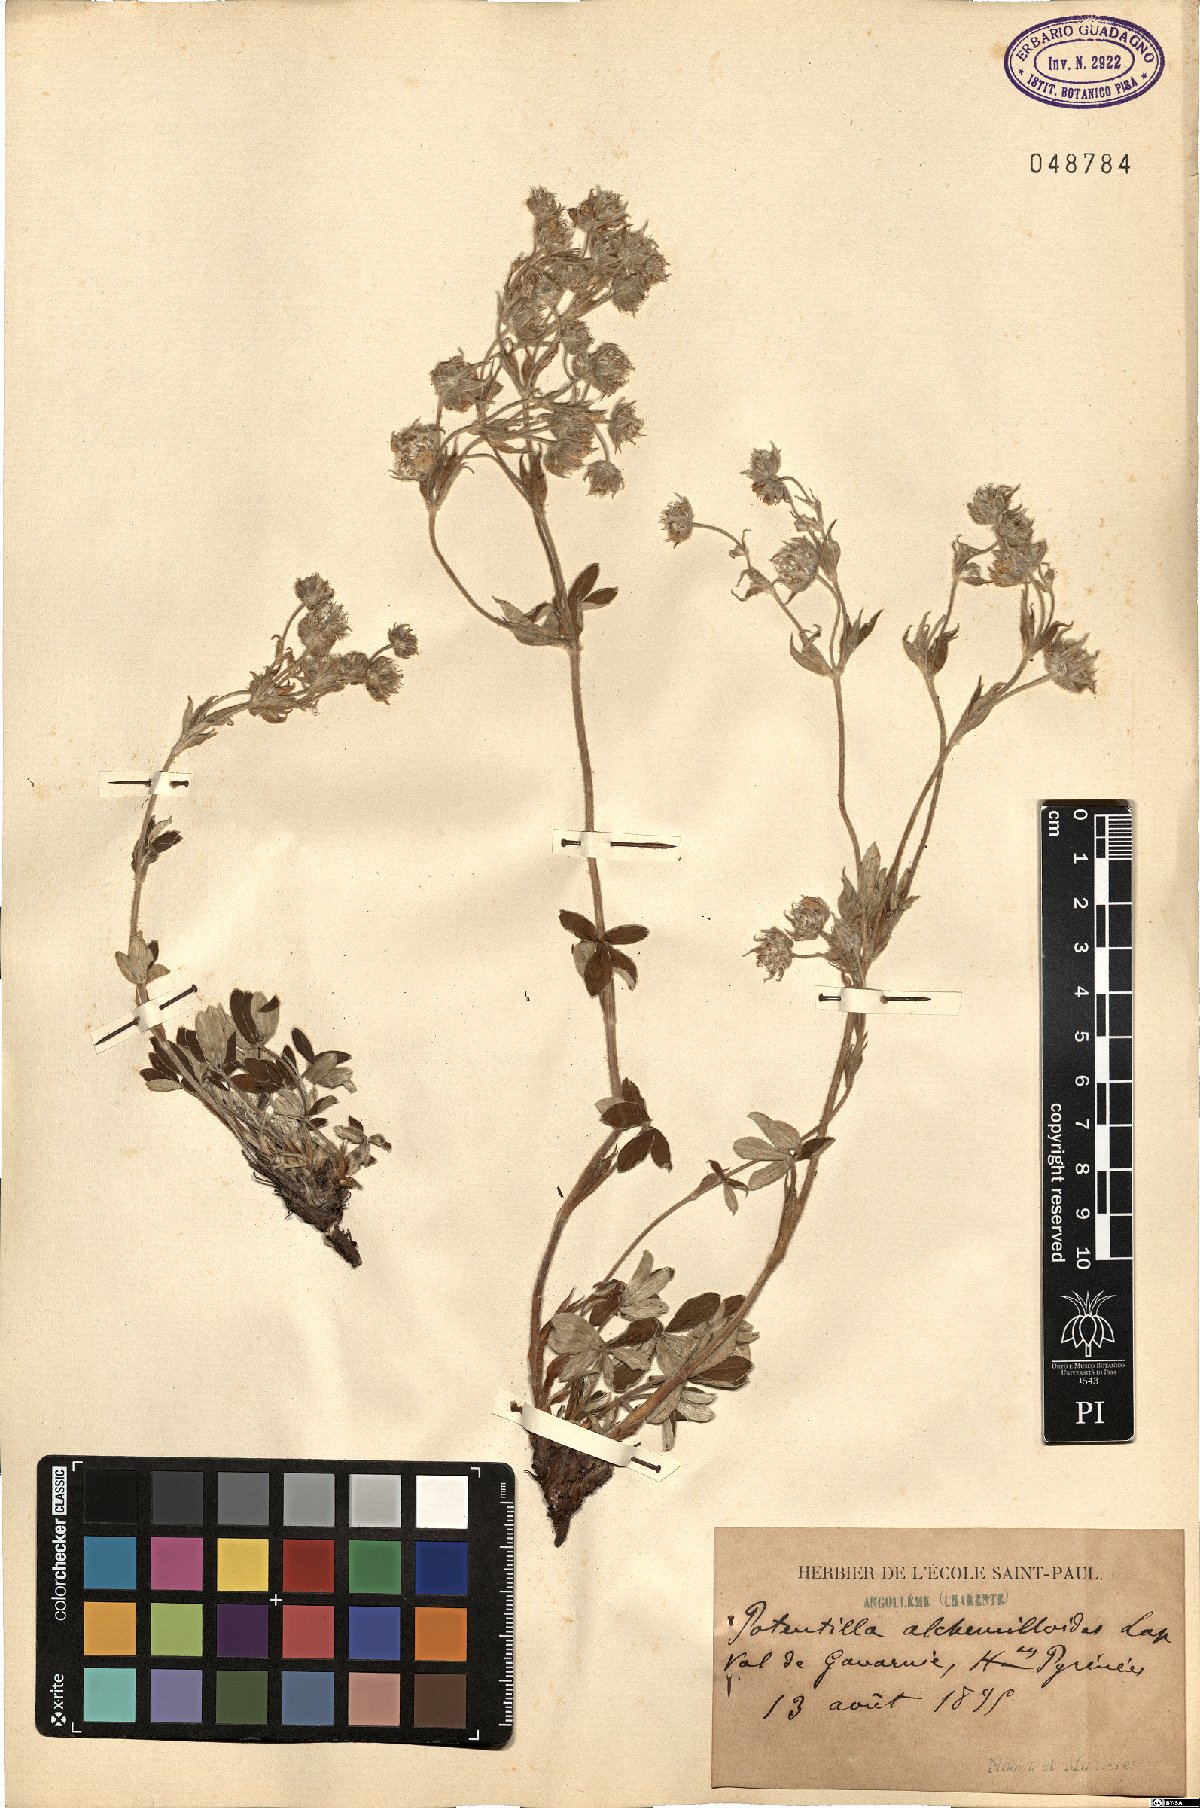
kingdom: Plantae
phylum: Tracheophyta
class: Magnoliopsida
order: Rosales
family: Rosaceae
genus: Potentilla
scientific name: Potentilla alchimilloides
